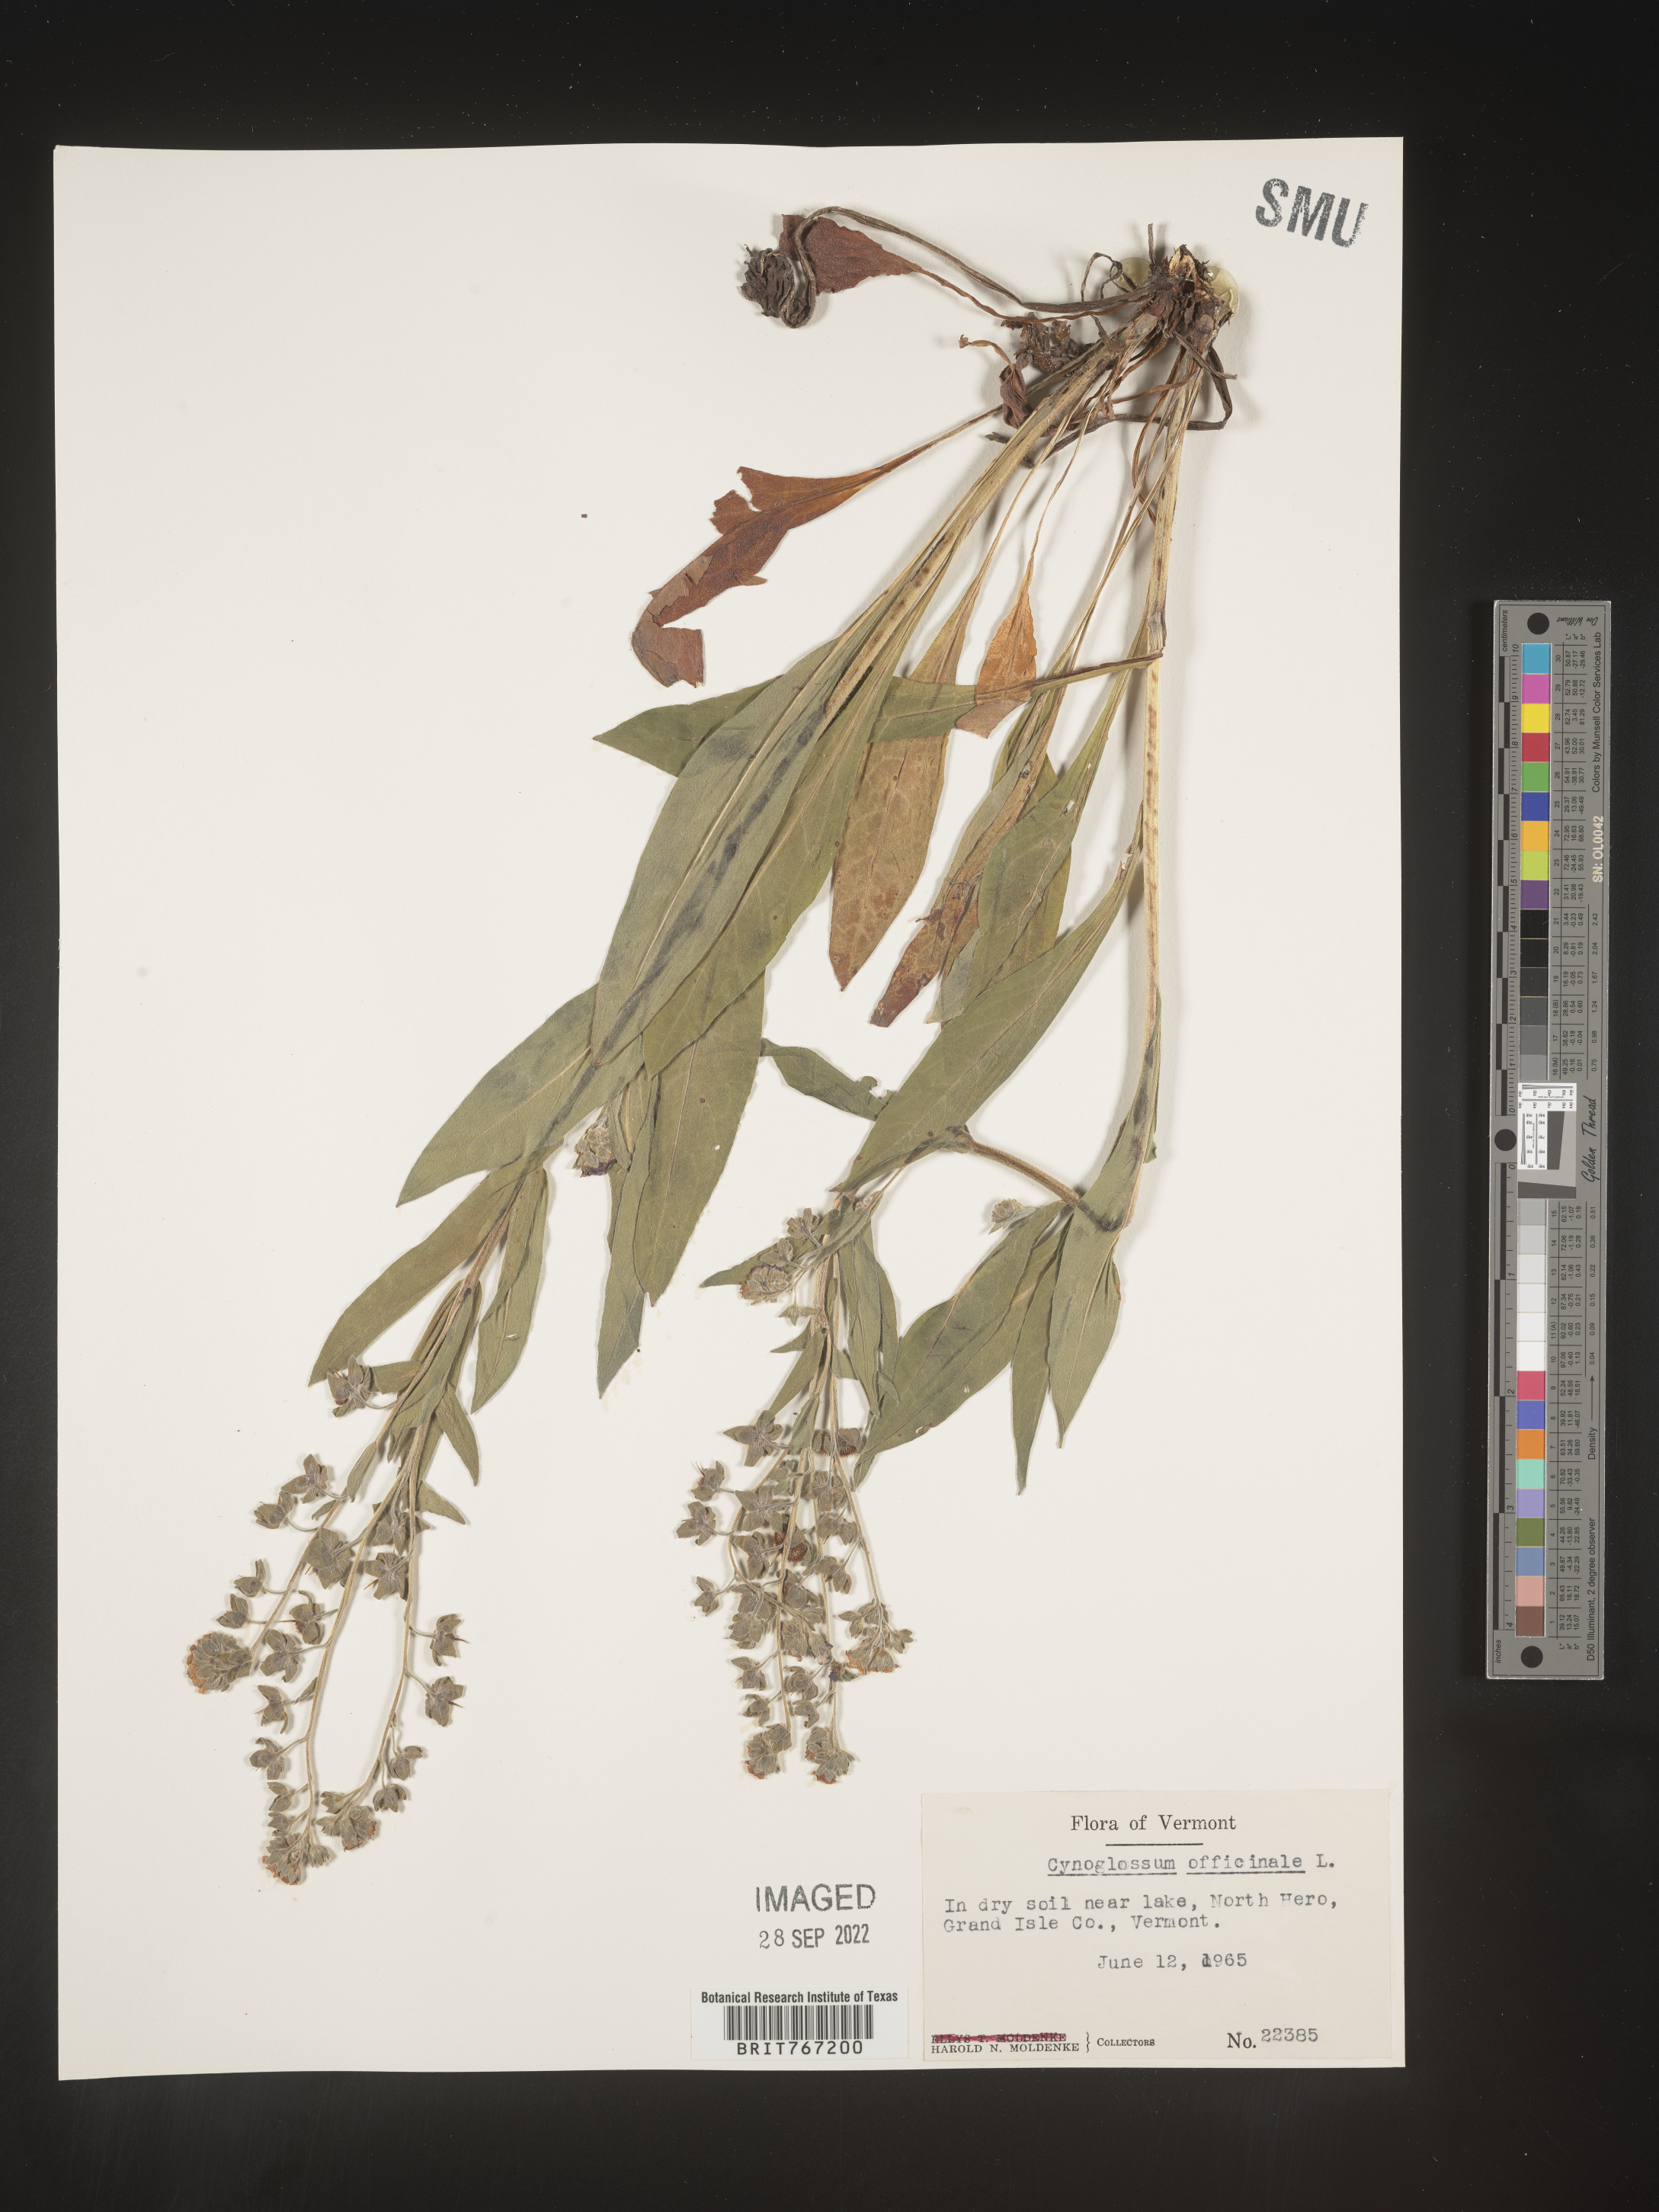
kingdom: Plantae
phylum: Tracheophyta
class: Magnoliopsida
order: Boraginales
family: Boraginaceae
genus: Cynoglossum
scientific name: Cynoglossum officinale
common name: Hound's-tongue
